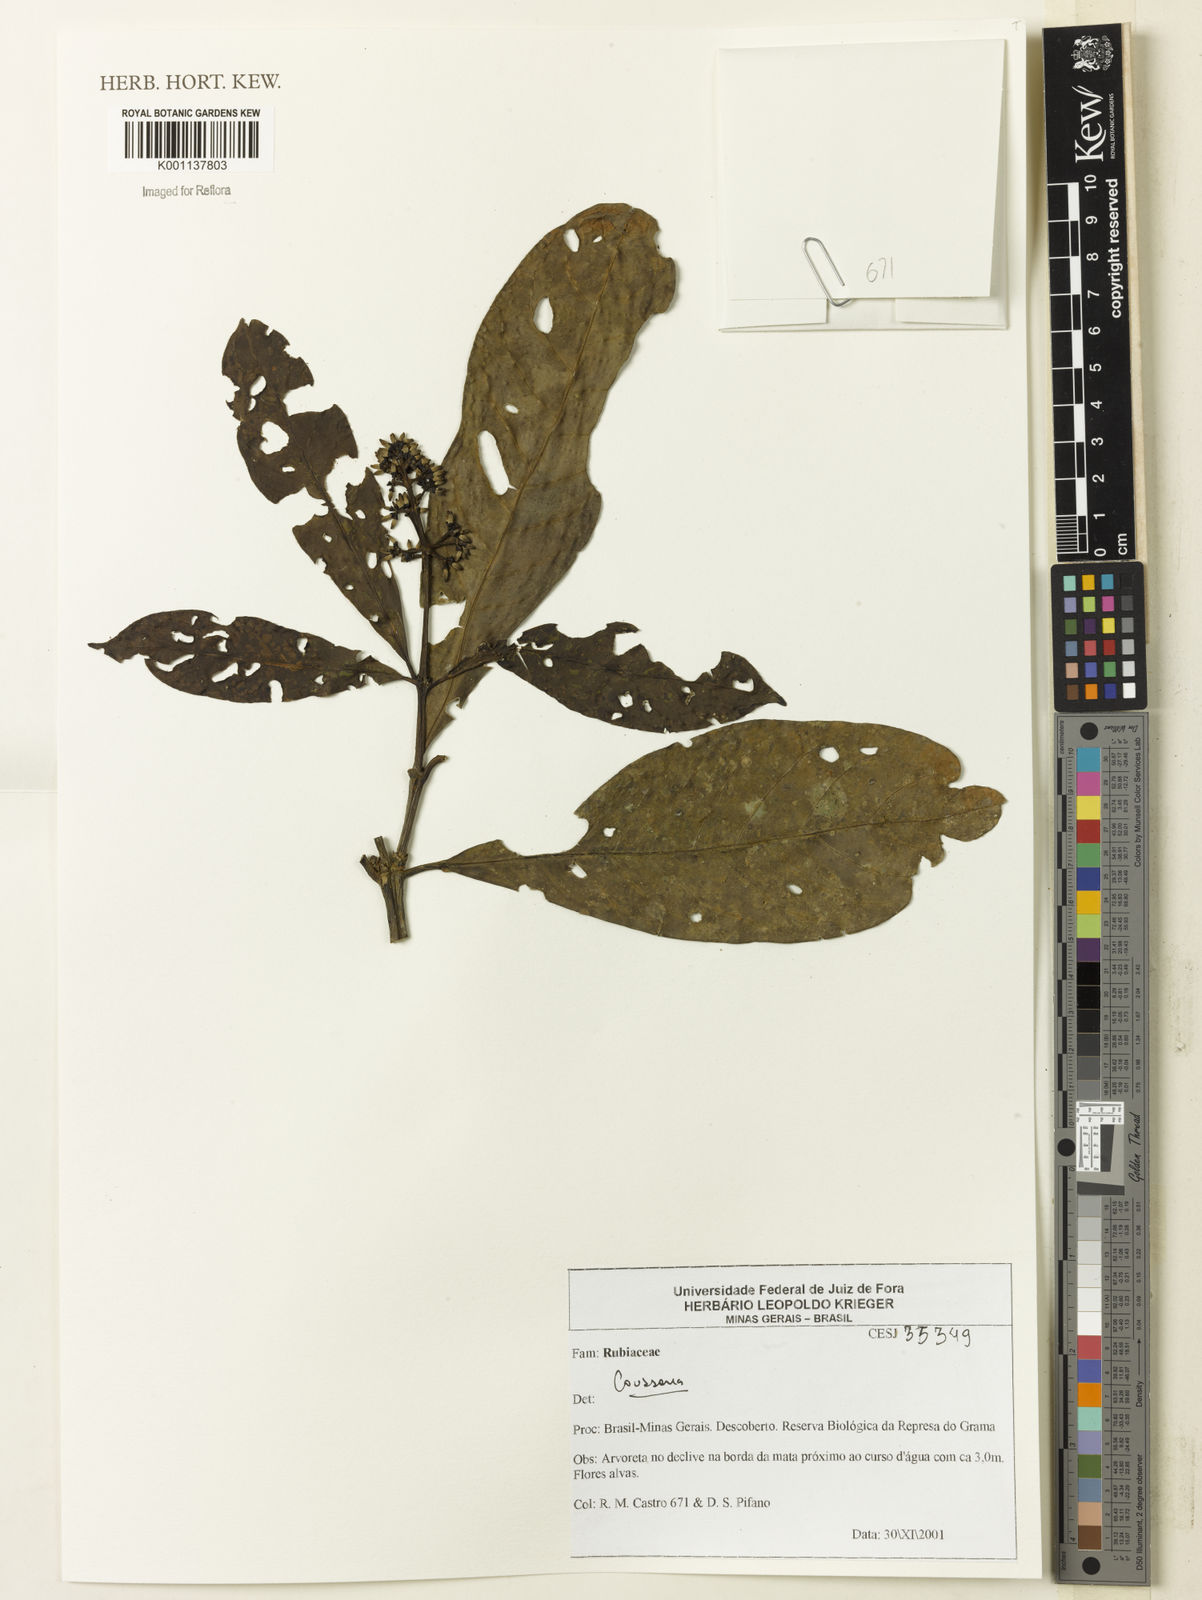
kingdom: Plantae
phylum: Tracheophyta
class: Magnoliopsida
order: Gentianales
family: Rubiaceae
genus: Coussarea
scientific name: Coussarea
